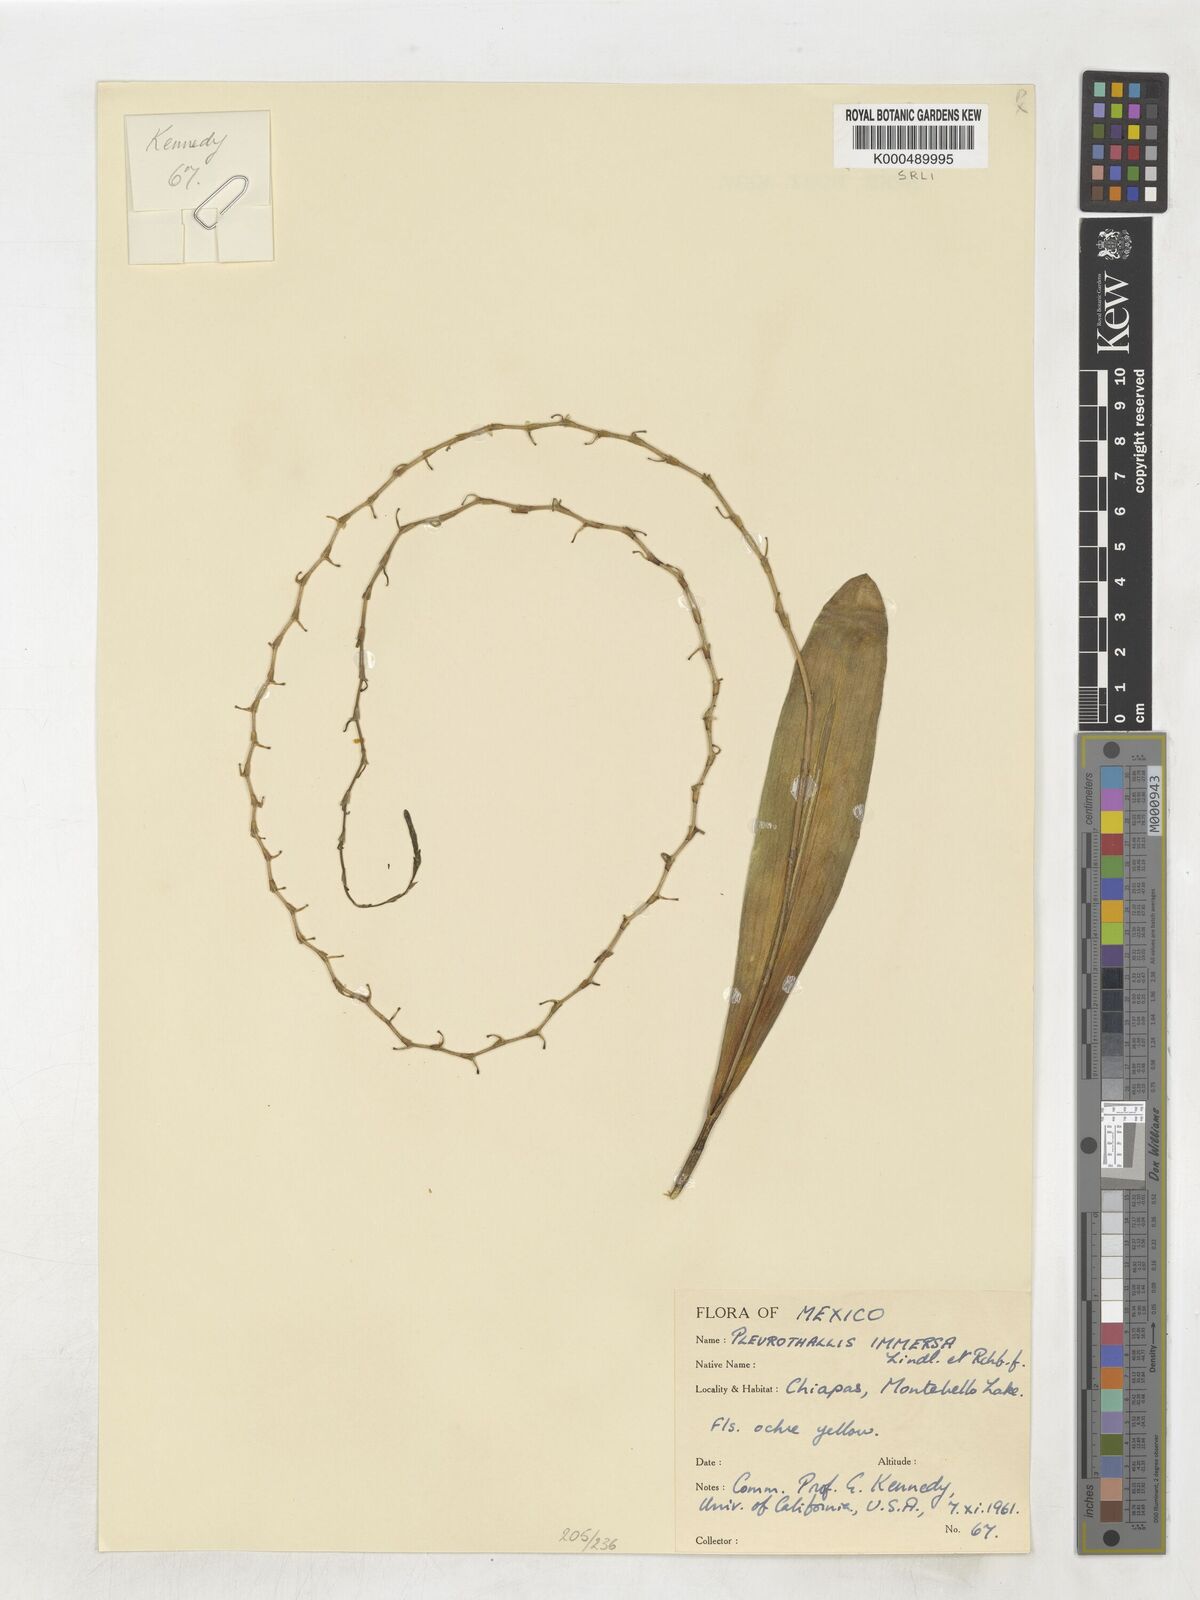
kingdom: Plantae
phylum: Tracheophyta
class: Liliopsida
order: Asparagales
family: Orchidaceae
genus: Stelis
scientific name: Stelis immersa
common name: Sunken pleurothallis
